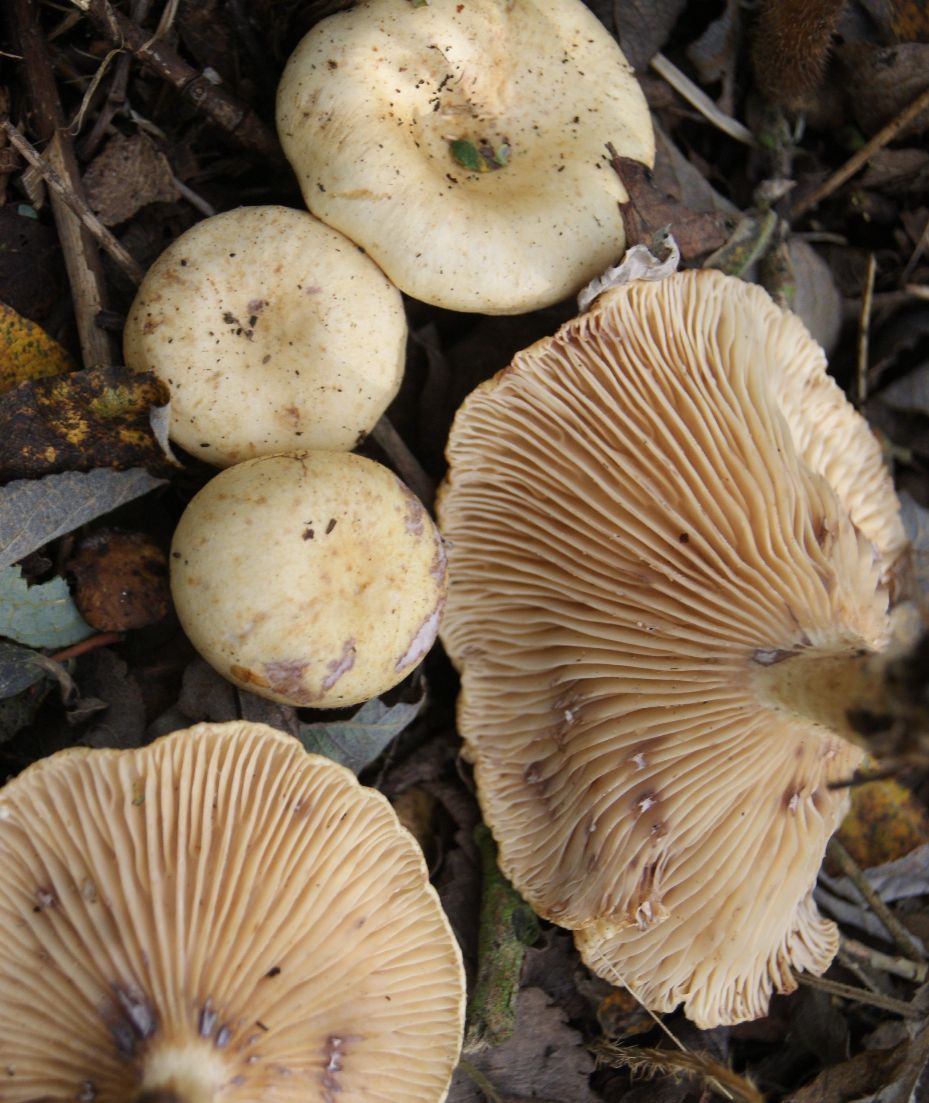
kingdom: Fungi
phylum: Basidiomycota
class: Agaricomycetes
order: Russulales
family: Russulaceae
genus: Lactarius
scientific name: Lactarius aspideus
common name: pile-mælkehat
